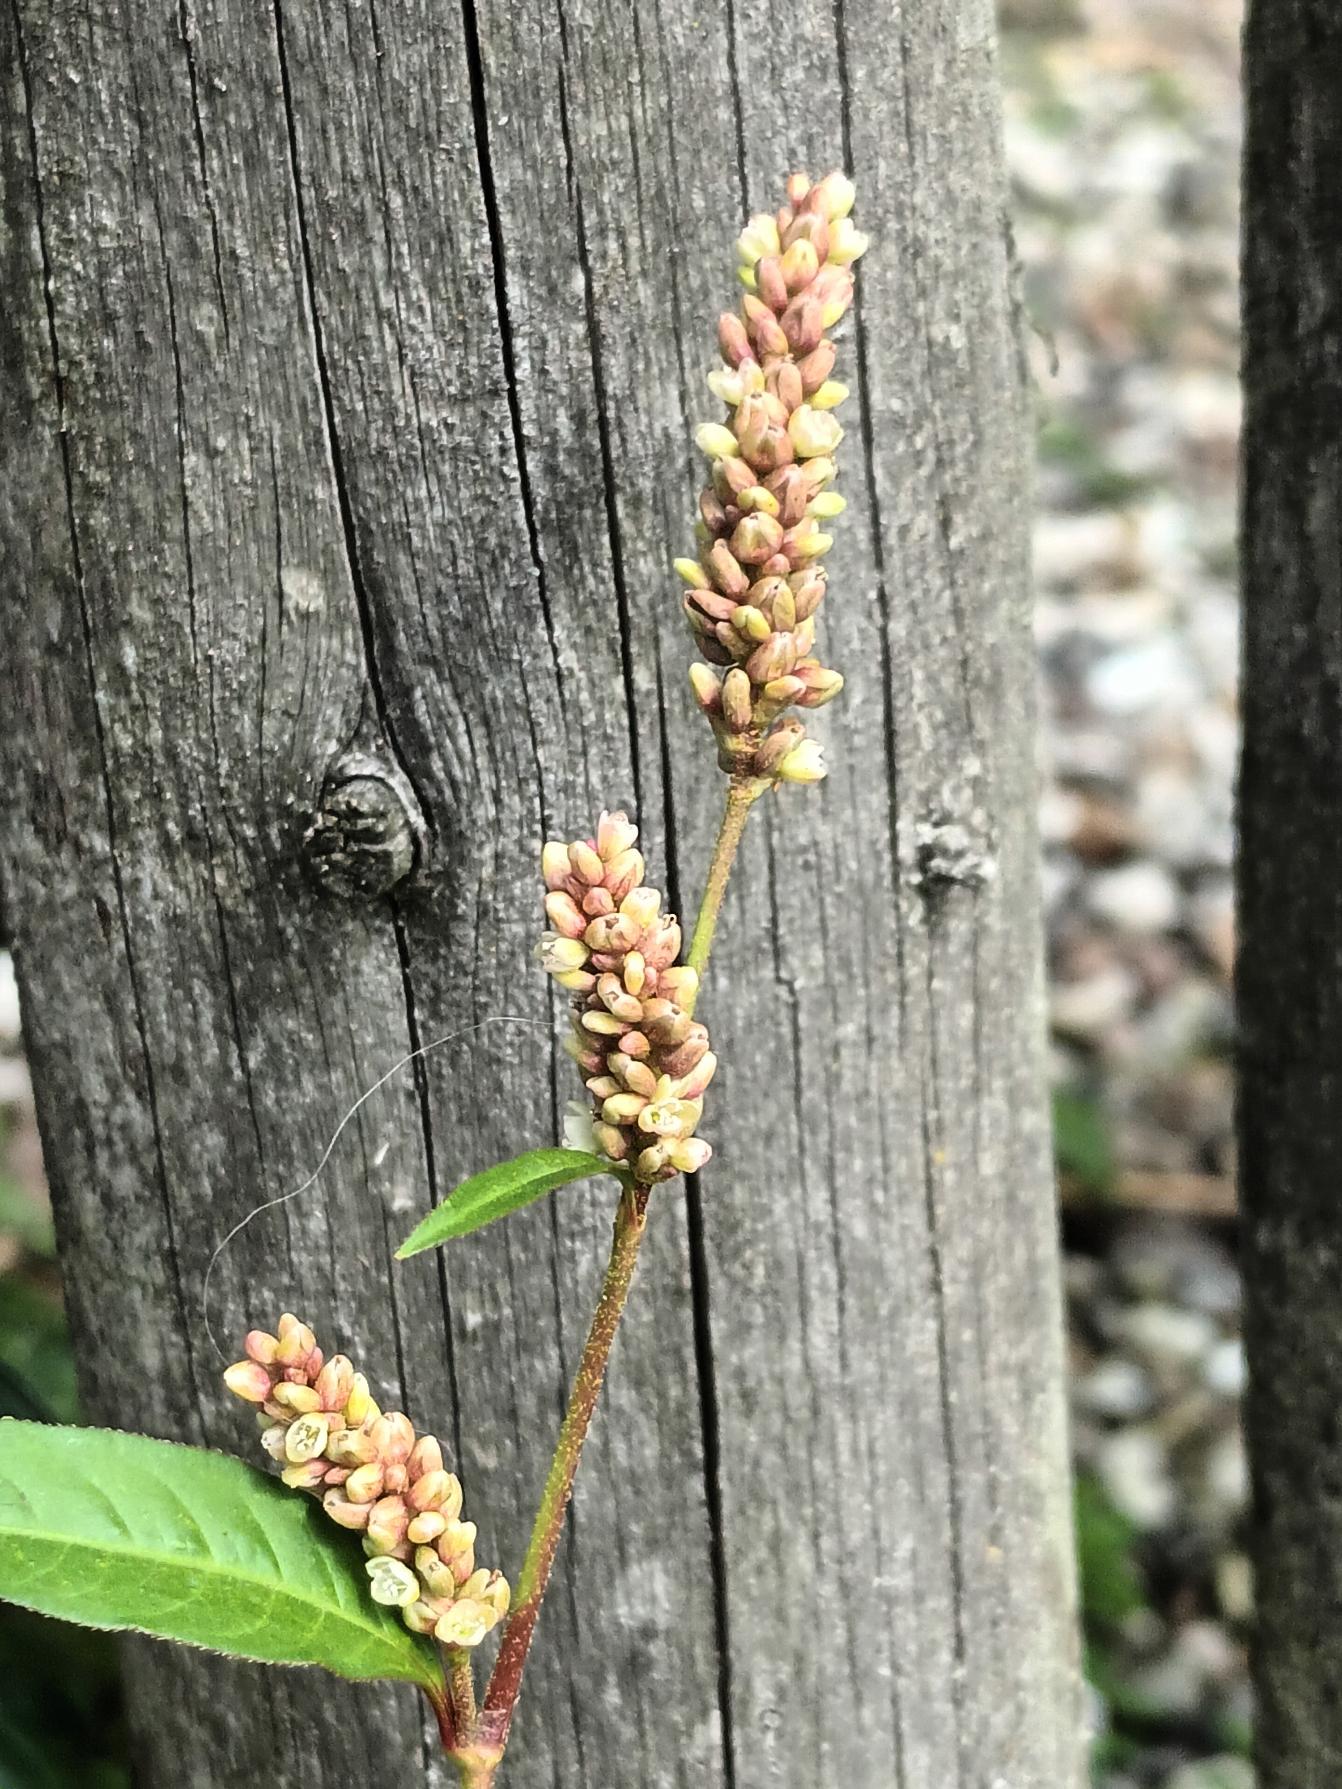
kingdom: Plantae
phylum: Tracheophyta
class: Magnoliopsida
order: Caryophyllales
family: Polygonaceae
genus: Persicaria
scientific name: Persicaria lapathifolia
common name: Knudet pileurt (underart)
